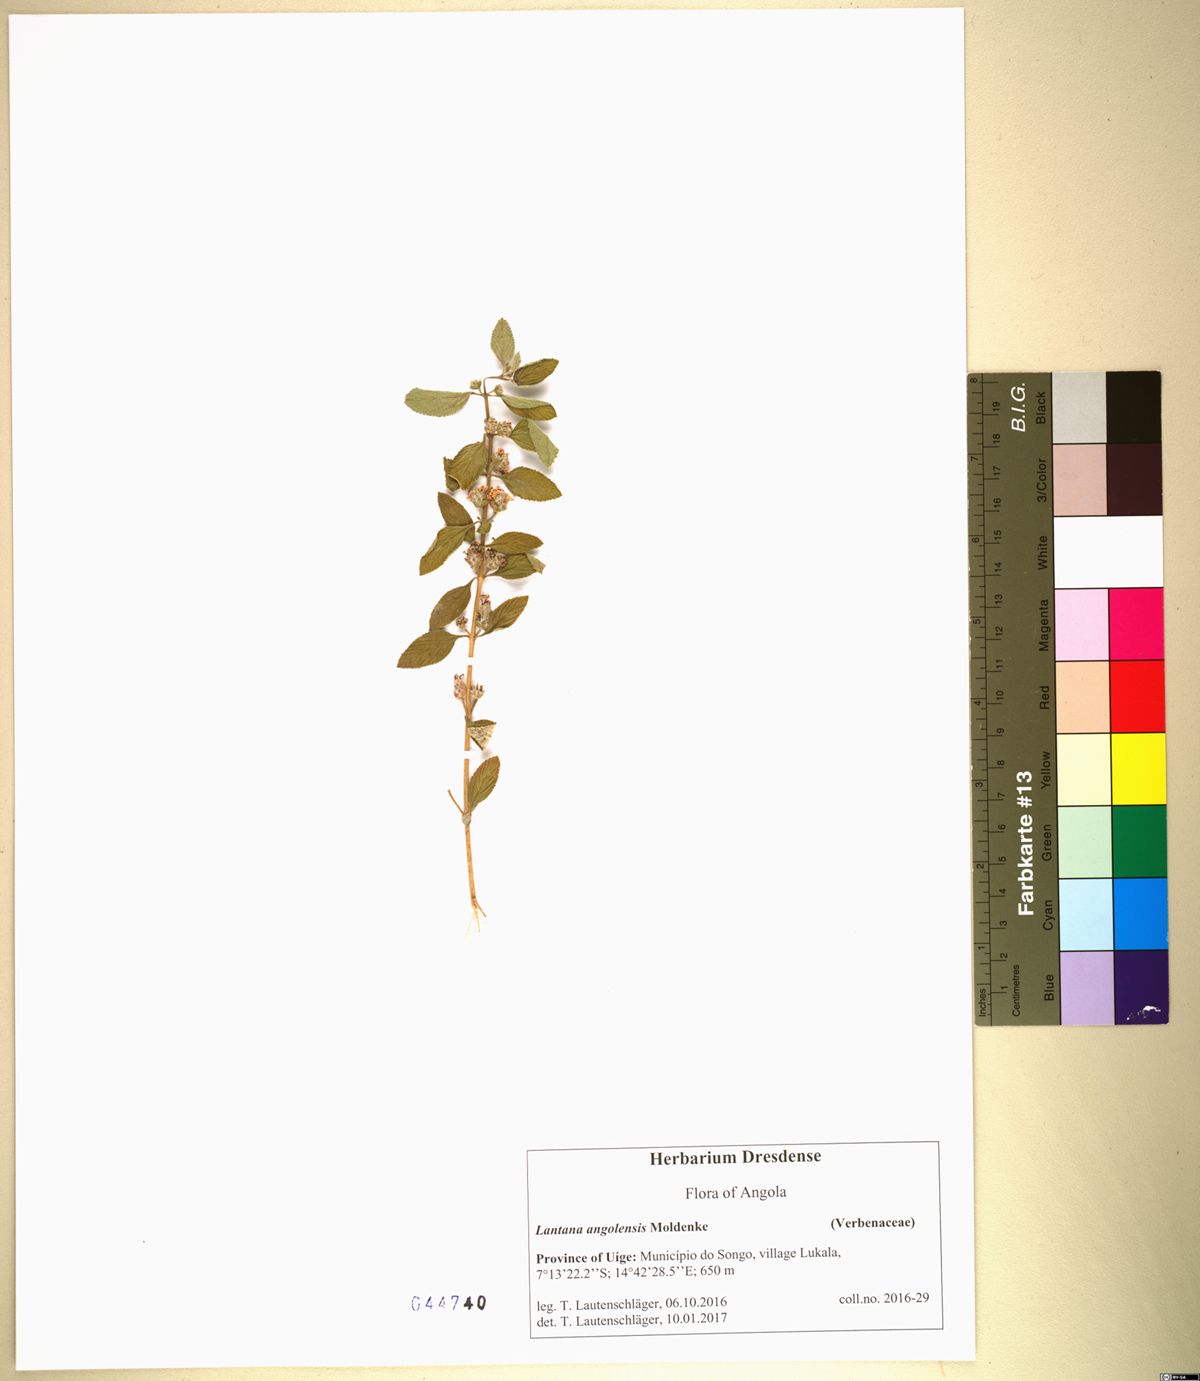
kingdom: Plantae
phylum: Tracheophyta
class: Magnoliopsida
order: Lamiales
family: Verbenaceae
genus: Lantana
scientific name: Lantana angolensis
